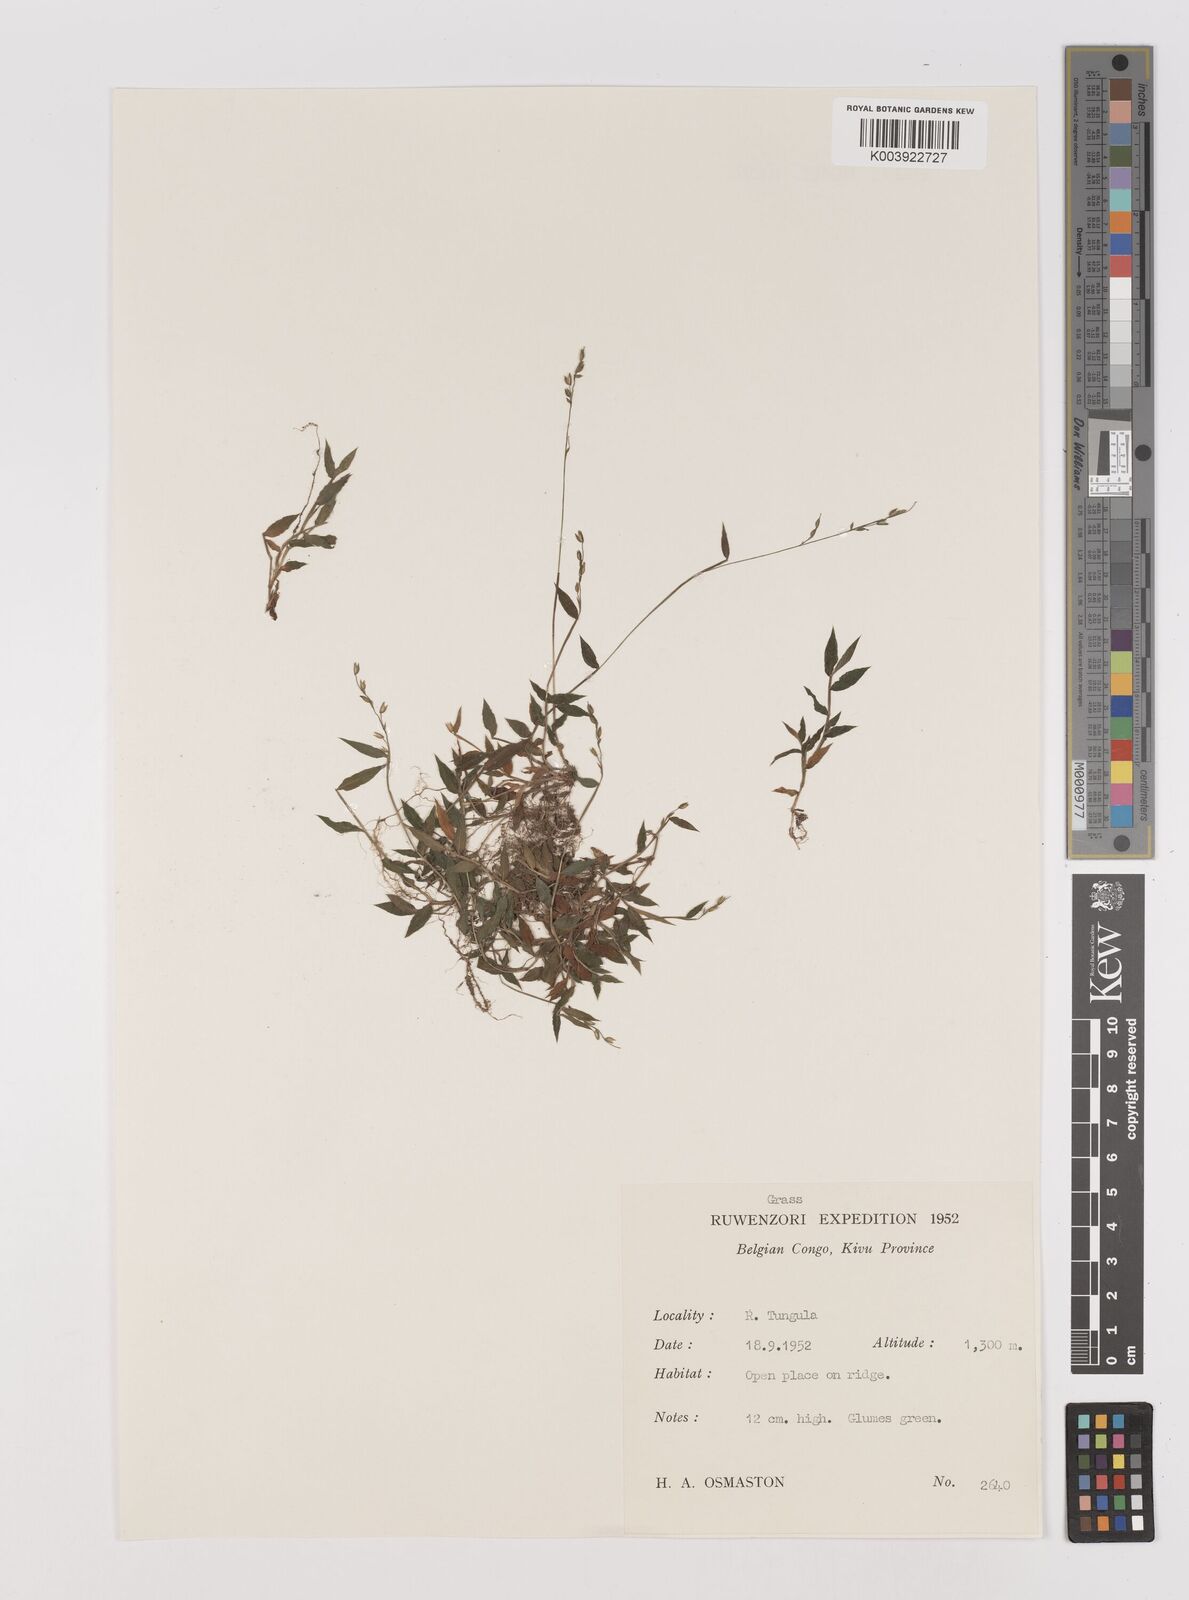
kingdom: Plantae
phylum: Tracheophyta
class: Liliopsida
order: Poales
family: Poaceae
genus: Pseudechinolaena
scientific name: Pseudechinolaena polystachya
